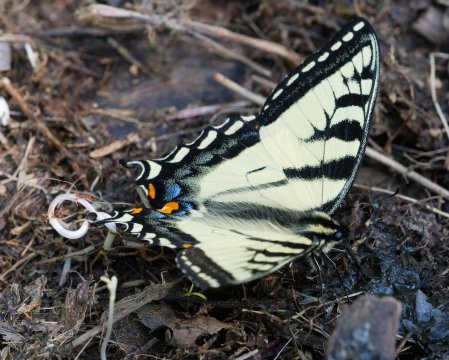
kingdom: Animalia
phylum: Arthropoda
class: Insecta
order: Lepidoptera
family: Papilionidae
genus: Papilio
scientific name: Papilio
